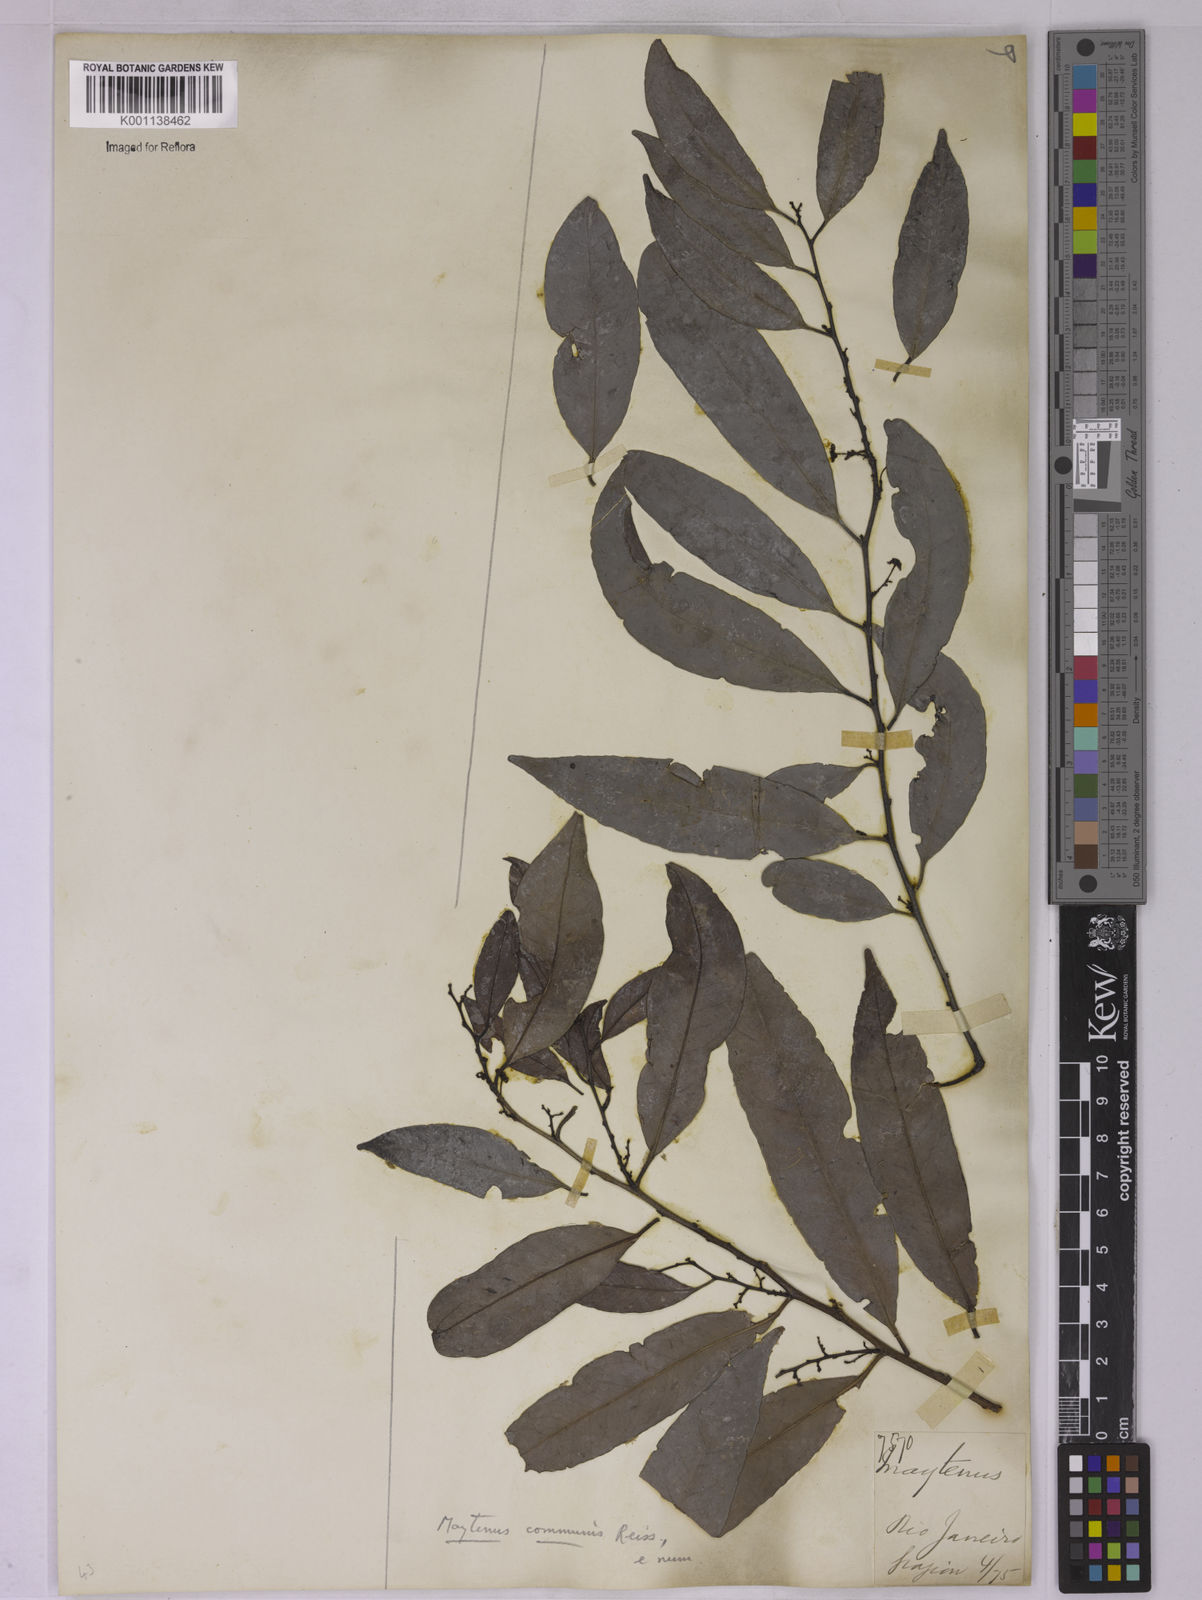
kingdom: Plantae
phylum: Tracheophyta
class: Magnoliopsida
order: Celastrales
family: Celastraceae
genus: Monteverdia
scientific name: Monteverdia communis
